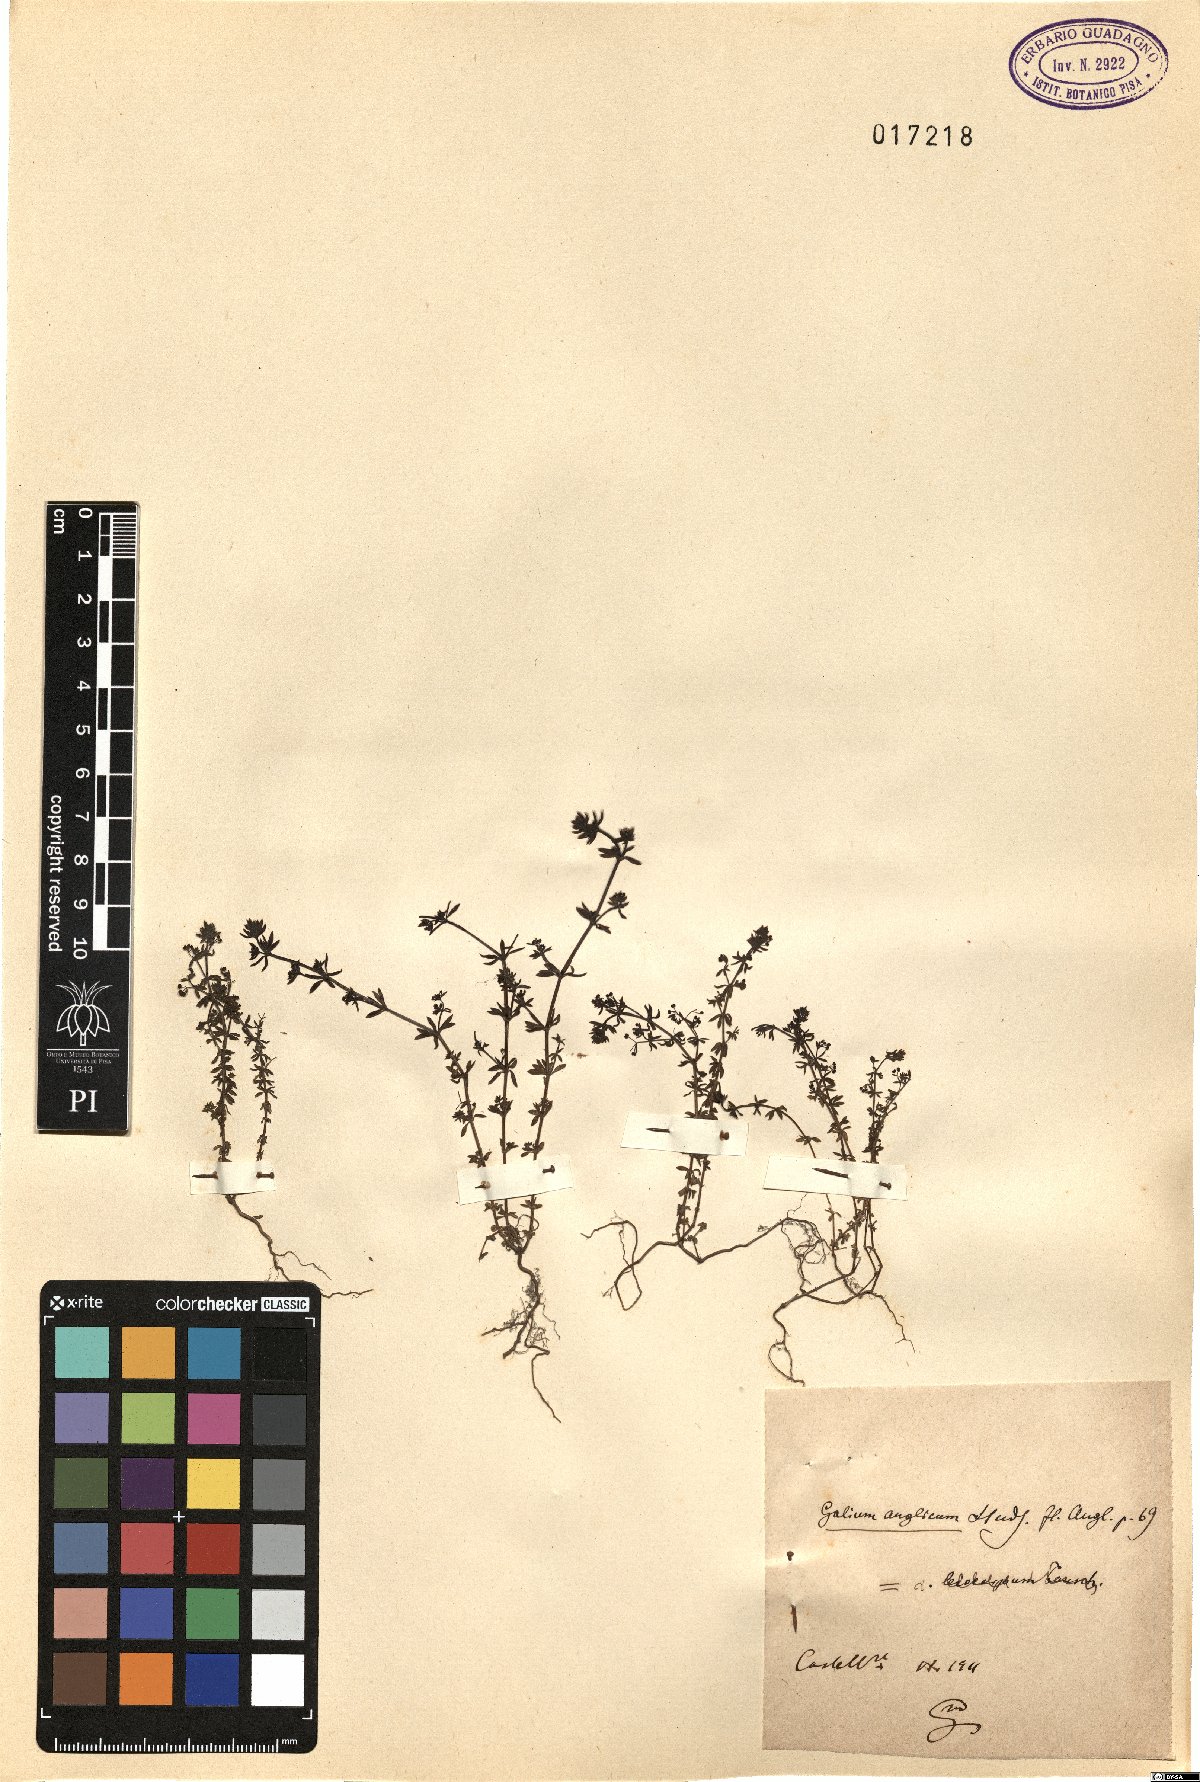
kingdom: Plantae
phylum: Tracheophyta
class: Magnoliopsida
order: Gentianales
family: Rubiaceae
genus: Galium
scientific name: Galium anglicum
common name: English bedstraw
